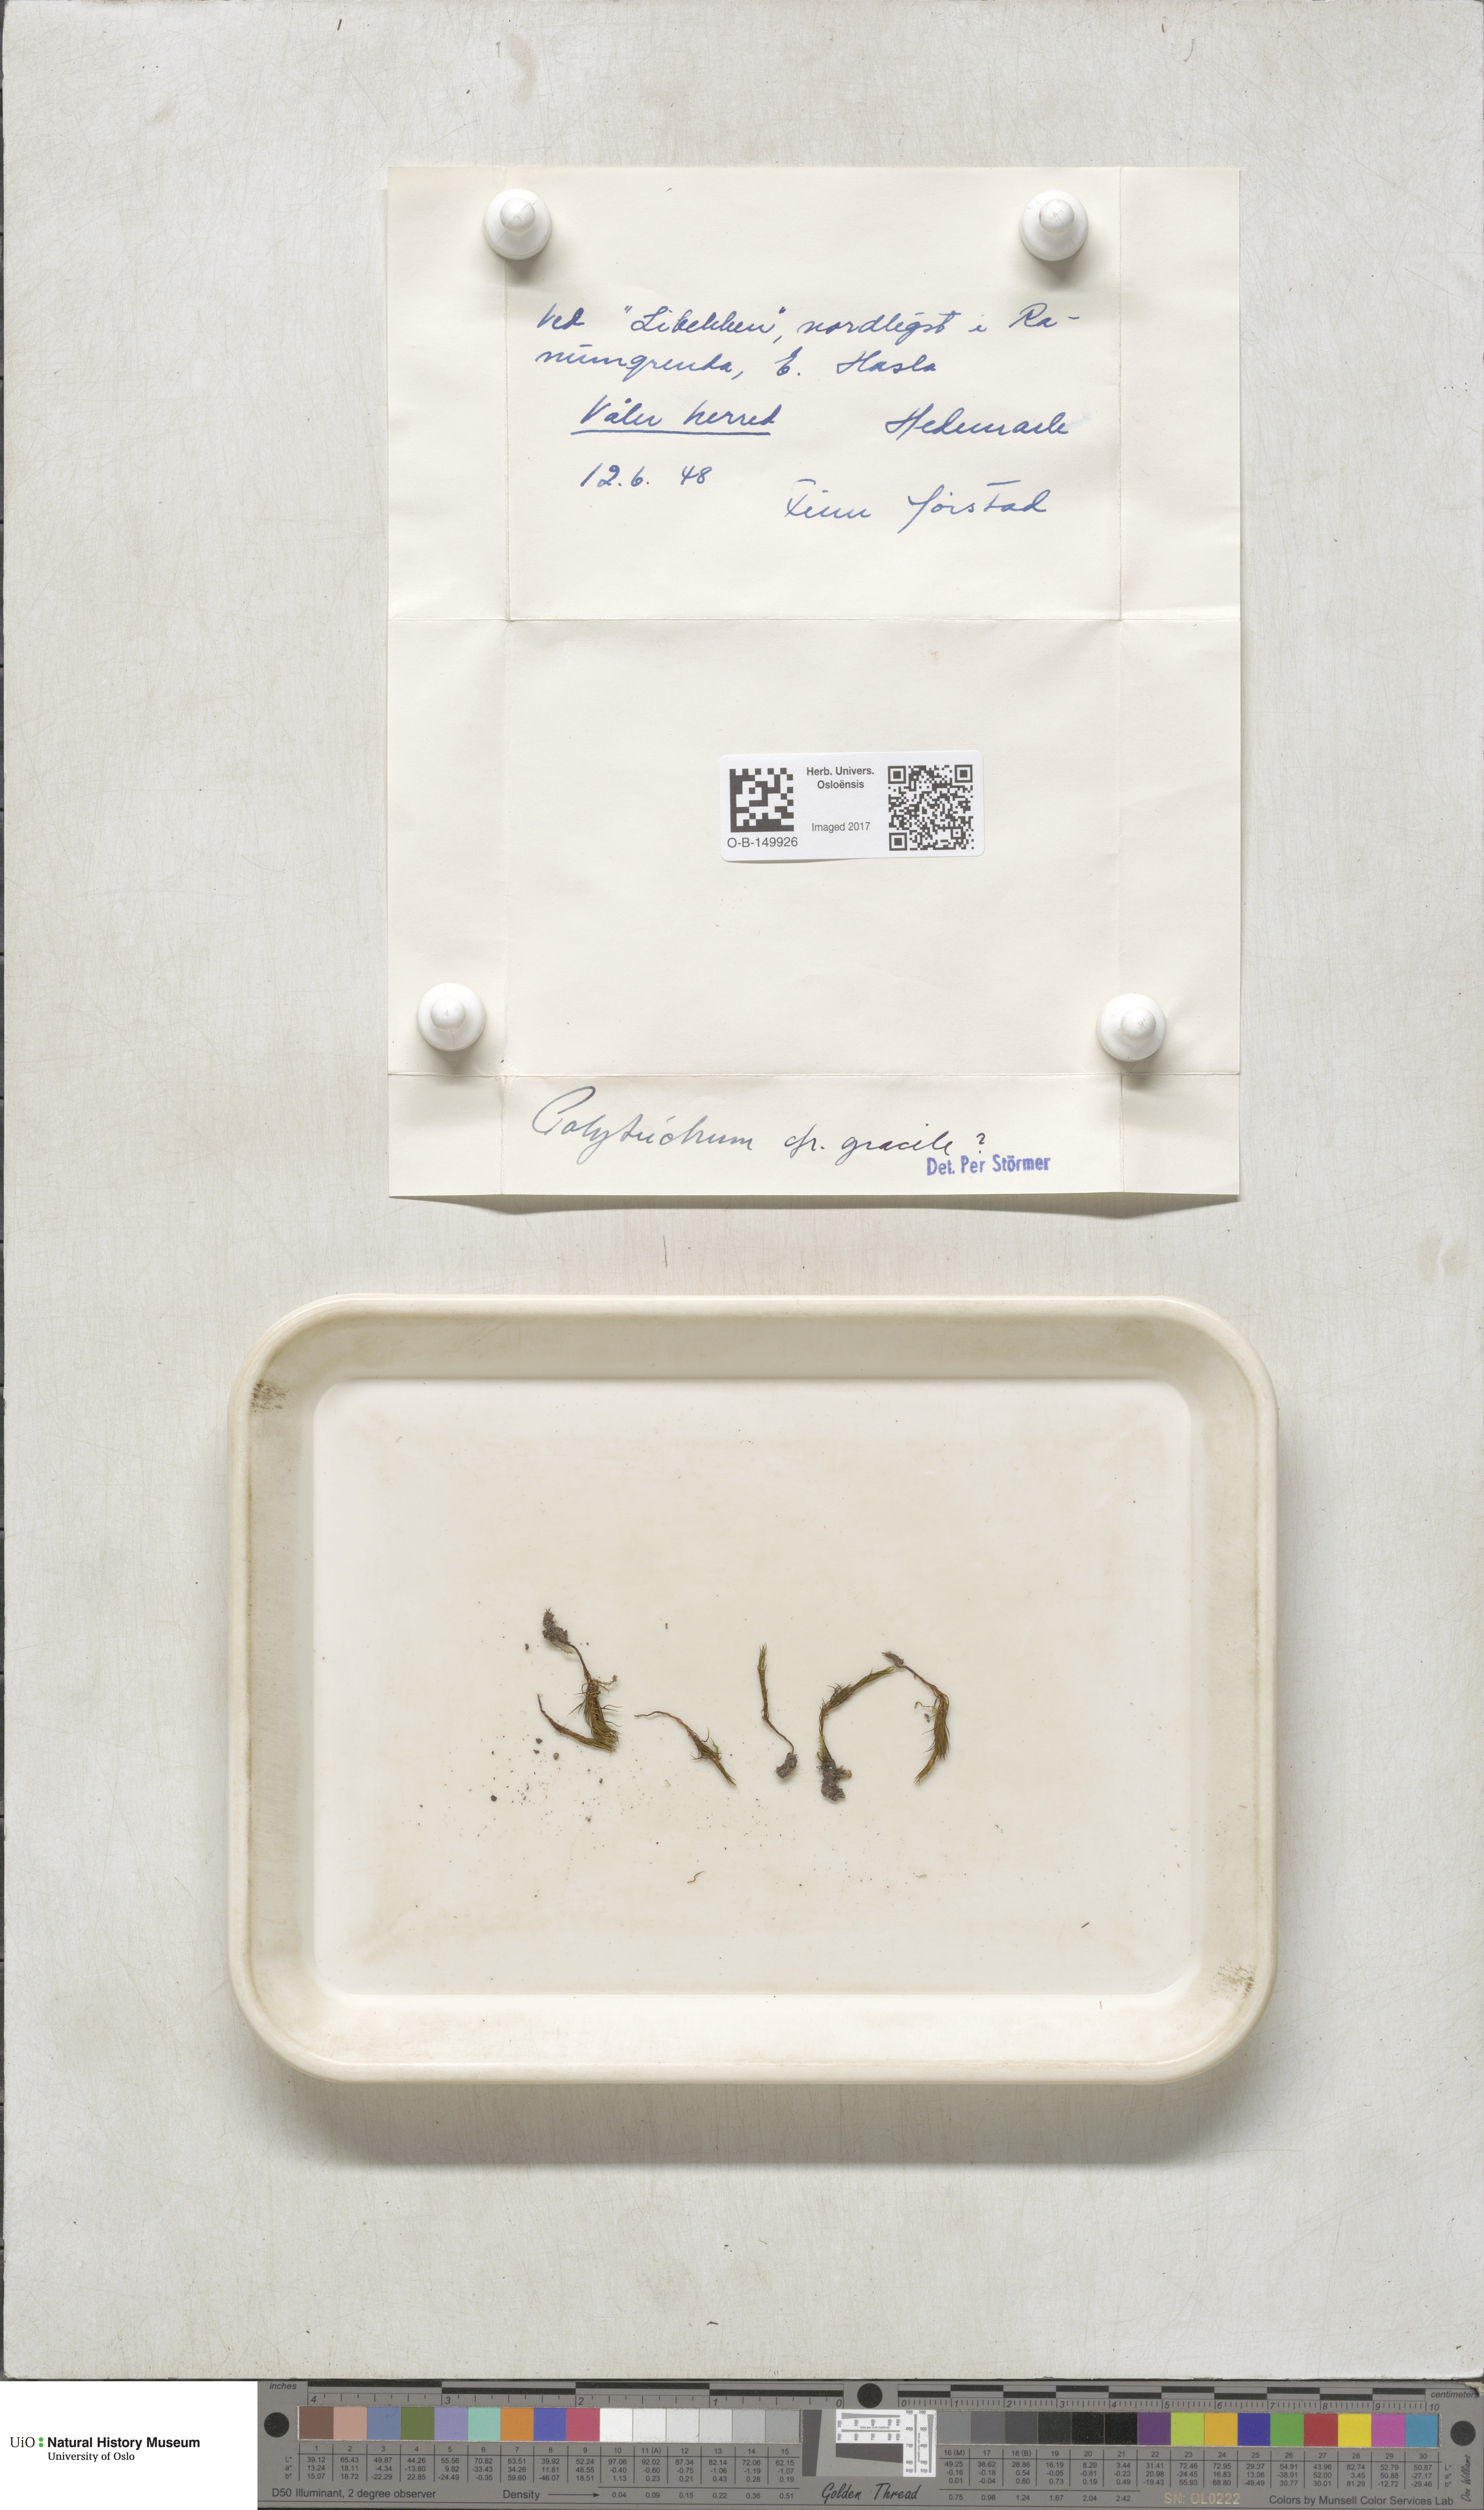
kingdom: Plantae
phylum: Bryophyta
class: Polytrichopsida
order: Polytrichales
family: Polytrichaceae
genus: Polytrichum
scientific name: Polytrichum longisetum
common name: Long-stalked haircap moss
